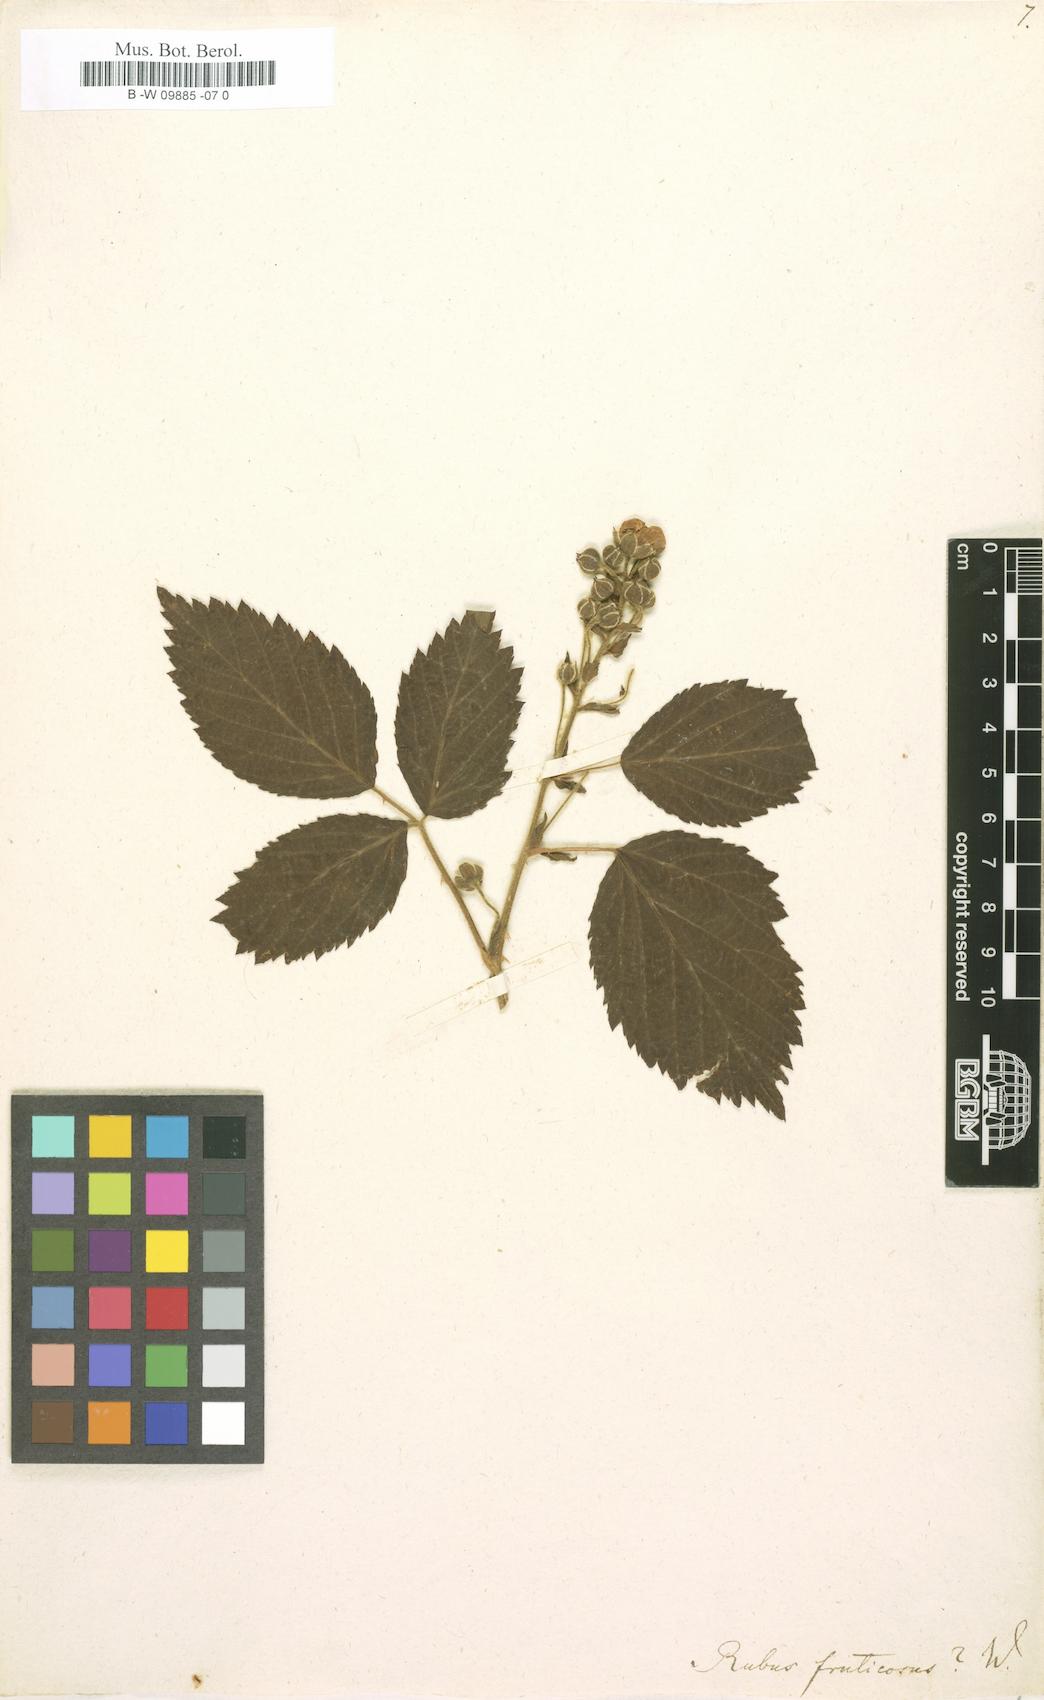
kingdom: Plantae
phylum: Tracheophyta
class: Magnoliopsida
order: Rosales
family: Rosaceae
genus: Rubus
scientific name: Rubus fruticosus
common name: Blackberry, bramble
